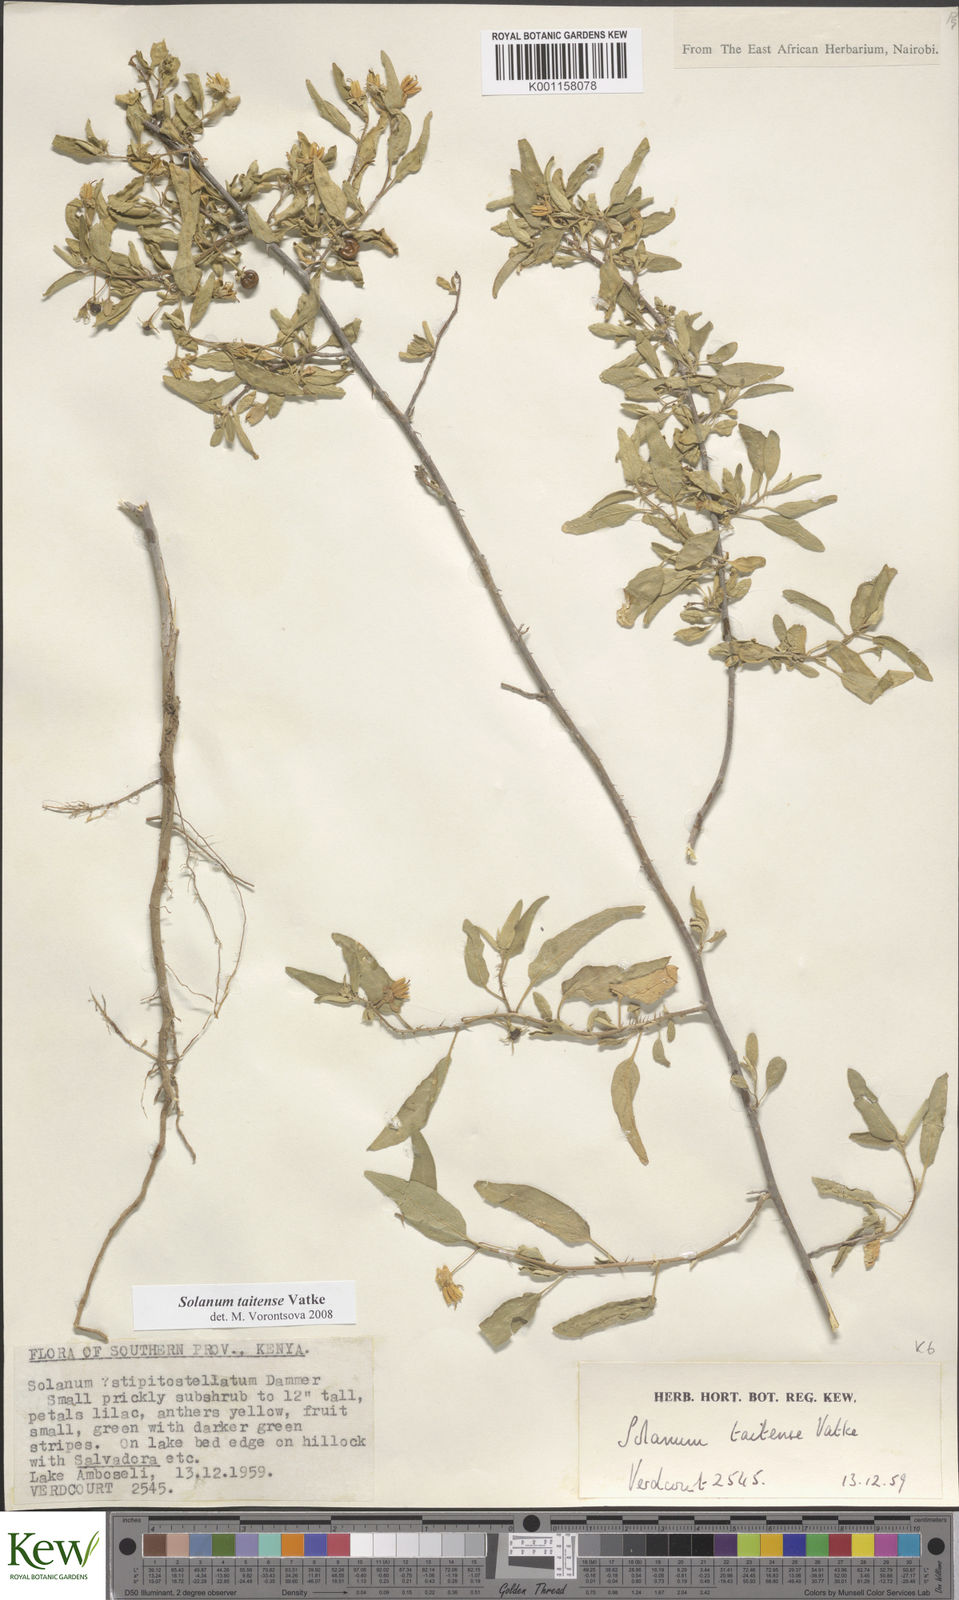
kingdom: Plantae
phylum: Tracheophyta
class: Magnoliopsida
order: Solanales
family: Solanaceae
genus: Solanum
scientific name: Solanum taitense
